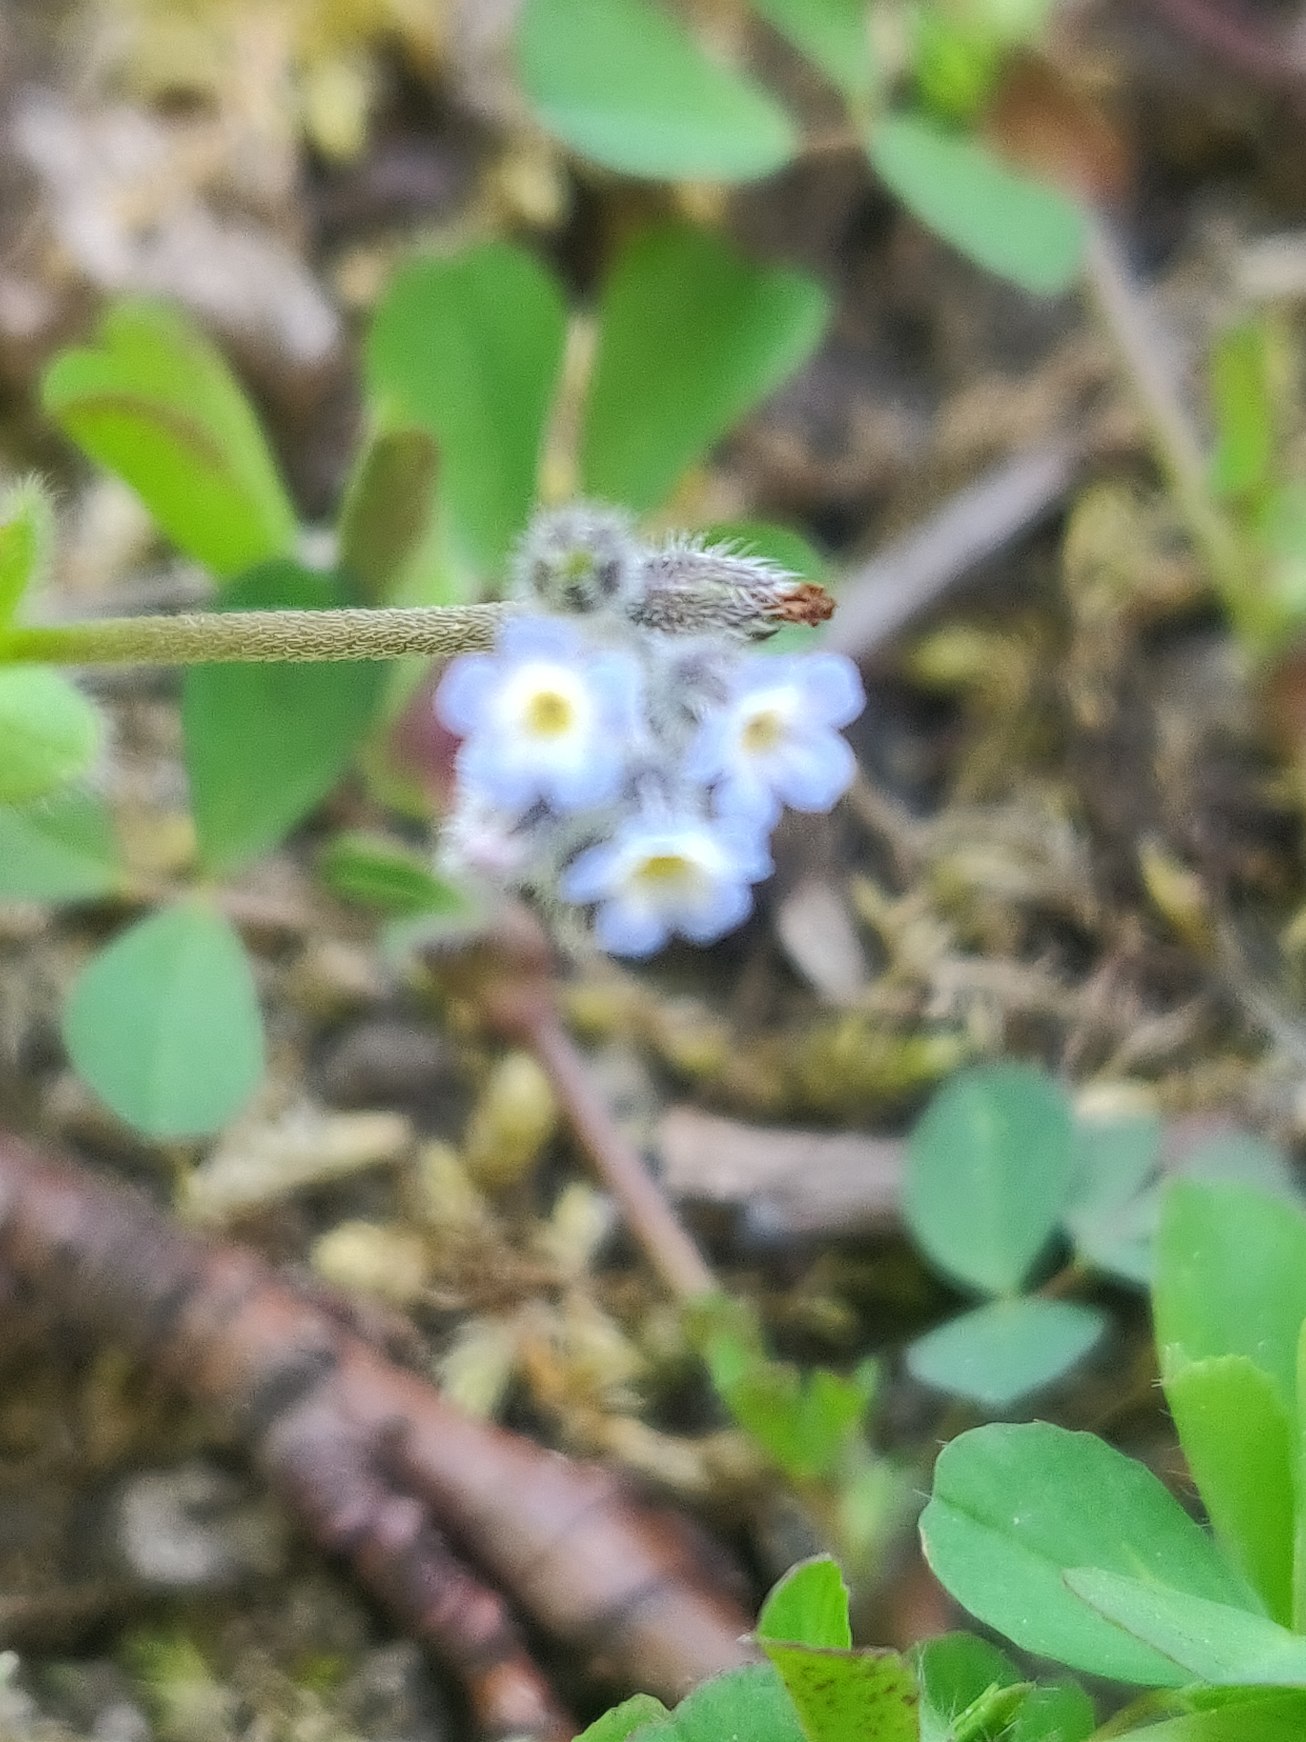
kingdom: Plantae
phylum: Tracheophyta
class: Magnoliopsida
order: Boraginales
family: Boraginaceae
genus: Myosotis
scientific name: Myosotis ramosissima
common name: Bakke-forglemmigej
